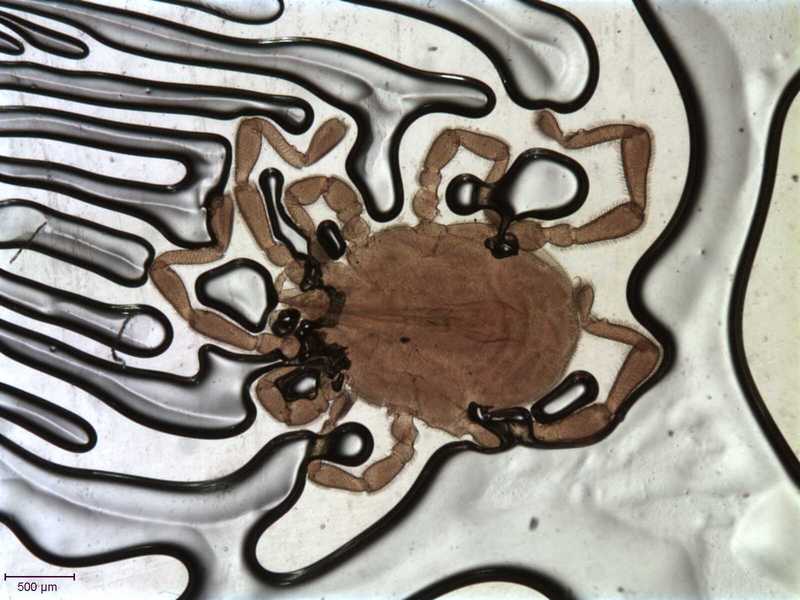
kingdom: Animalia
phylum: Arthropoda
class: Arachnida
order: Trombidiformes
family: Erythraeidae
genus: Caeculisoma
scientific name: Caeculisoma sulcatum
